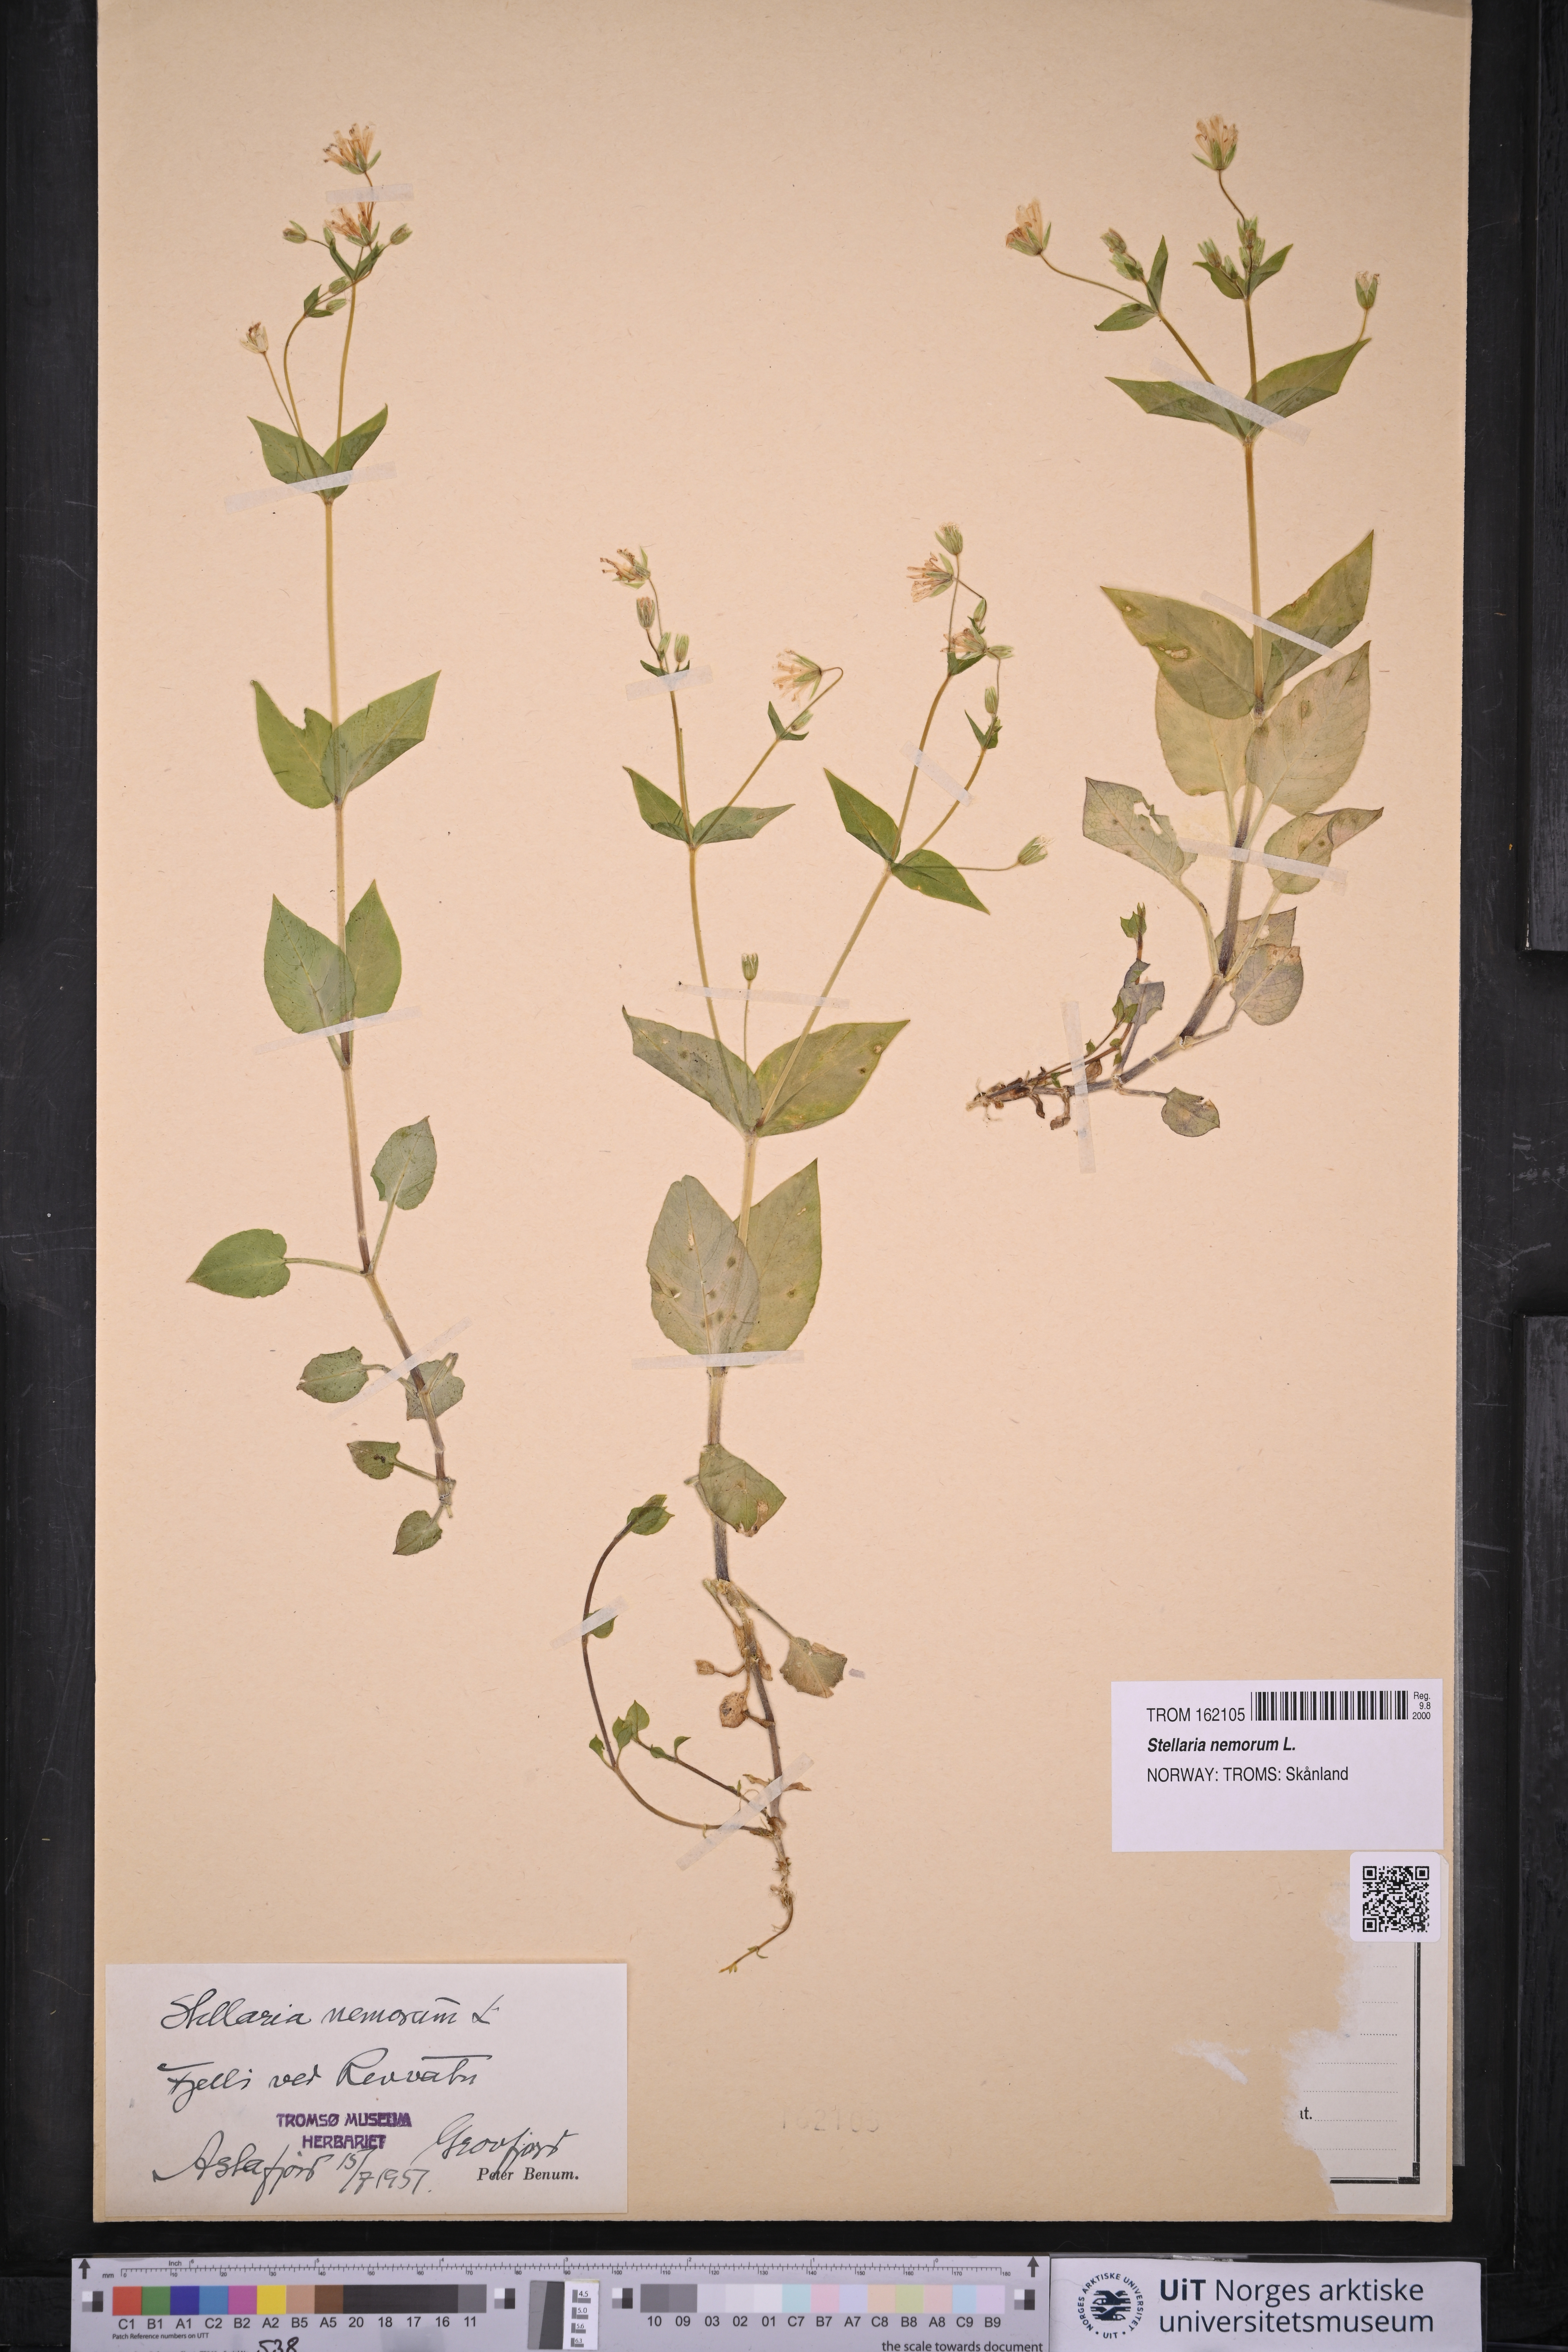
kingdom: Plantae
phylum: Tracheophyta
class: Magnoliopsida
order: Caryophyllales
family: Caryophyllaceae
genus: Stellaria
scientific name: Stellaria nemorum
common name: Wood stitchwort
